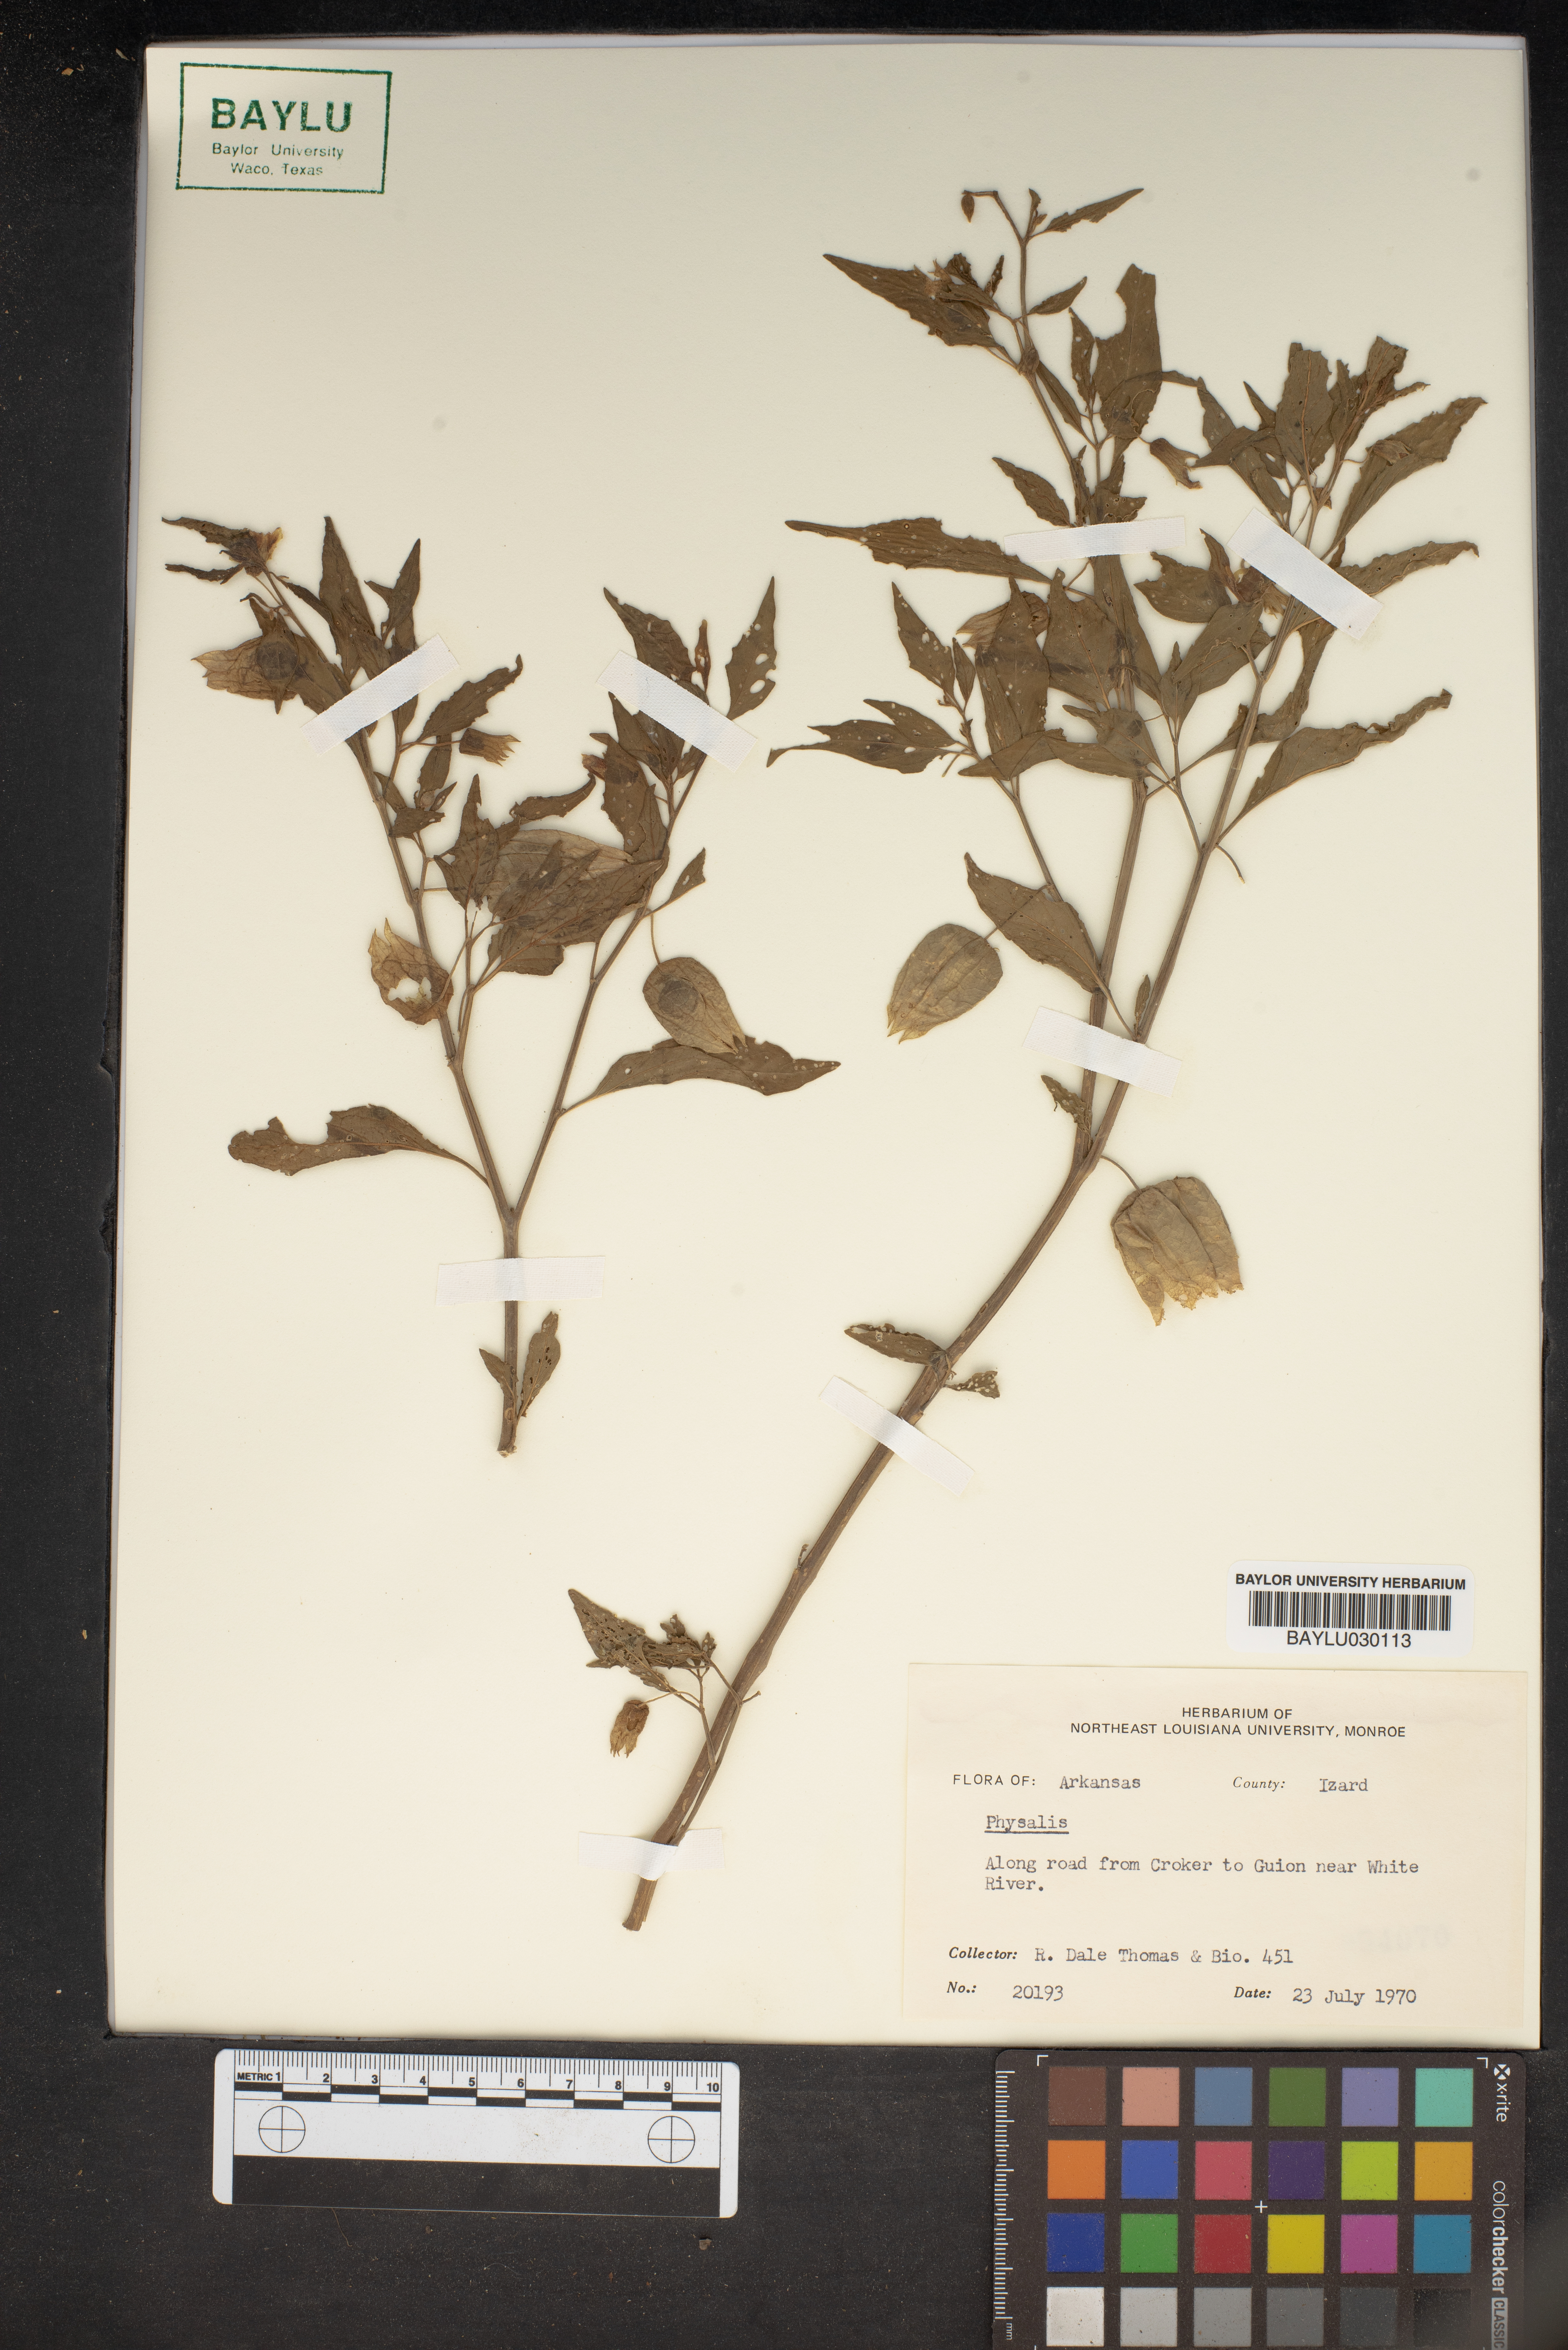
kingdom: Plantae
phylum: Tracheophyta
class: Magnoliopsida
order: Solanales
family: Solanaceae
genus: Physalis
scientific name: Physalis
